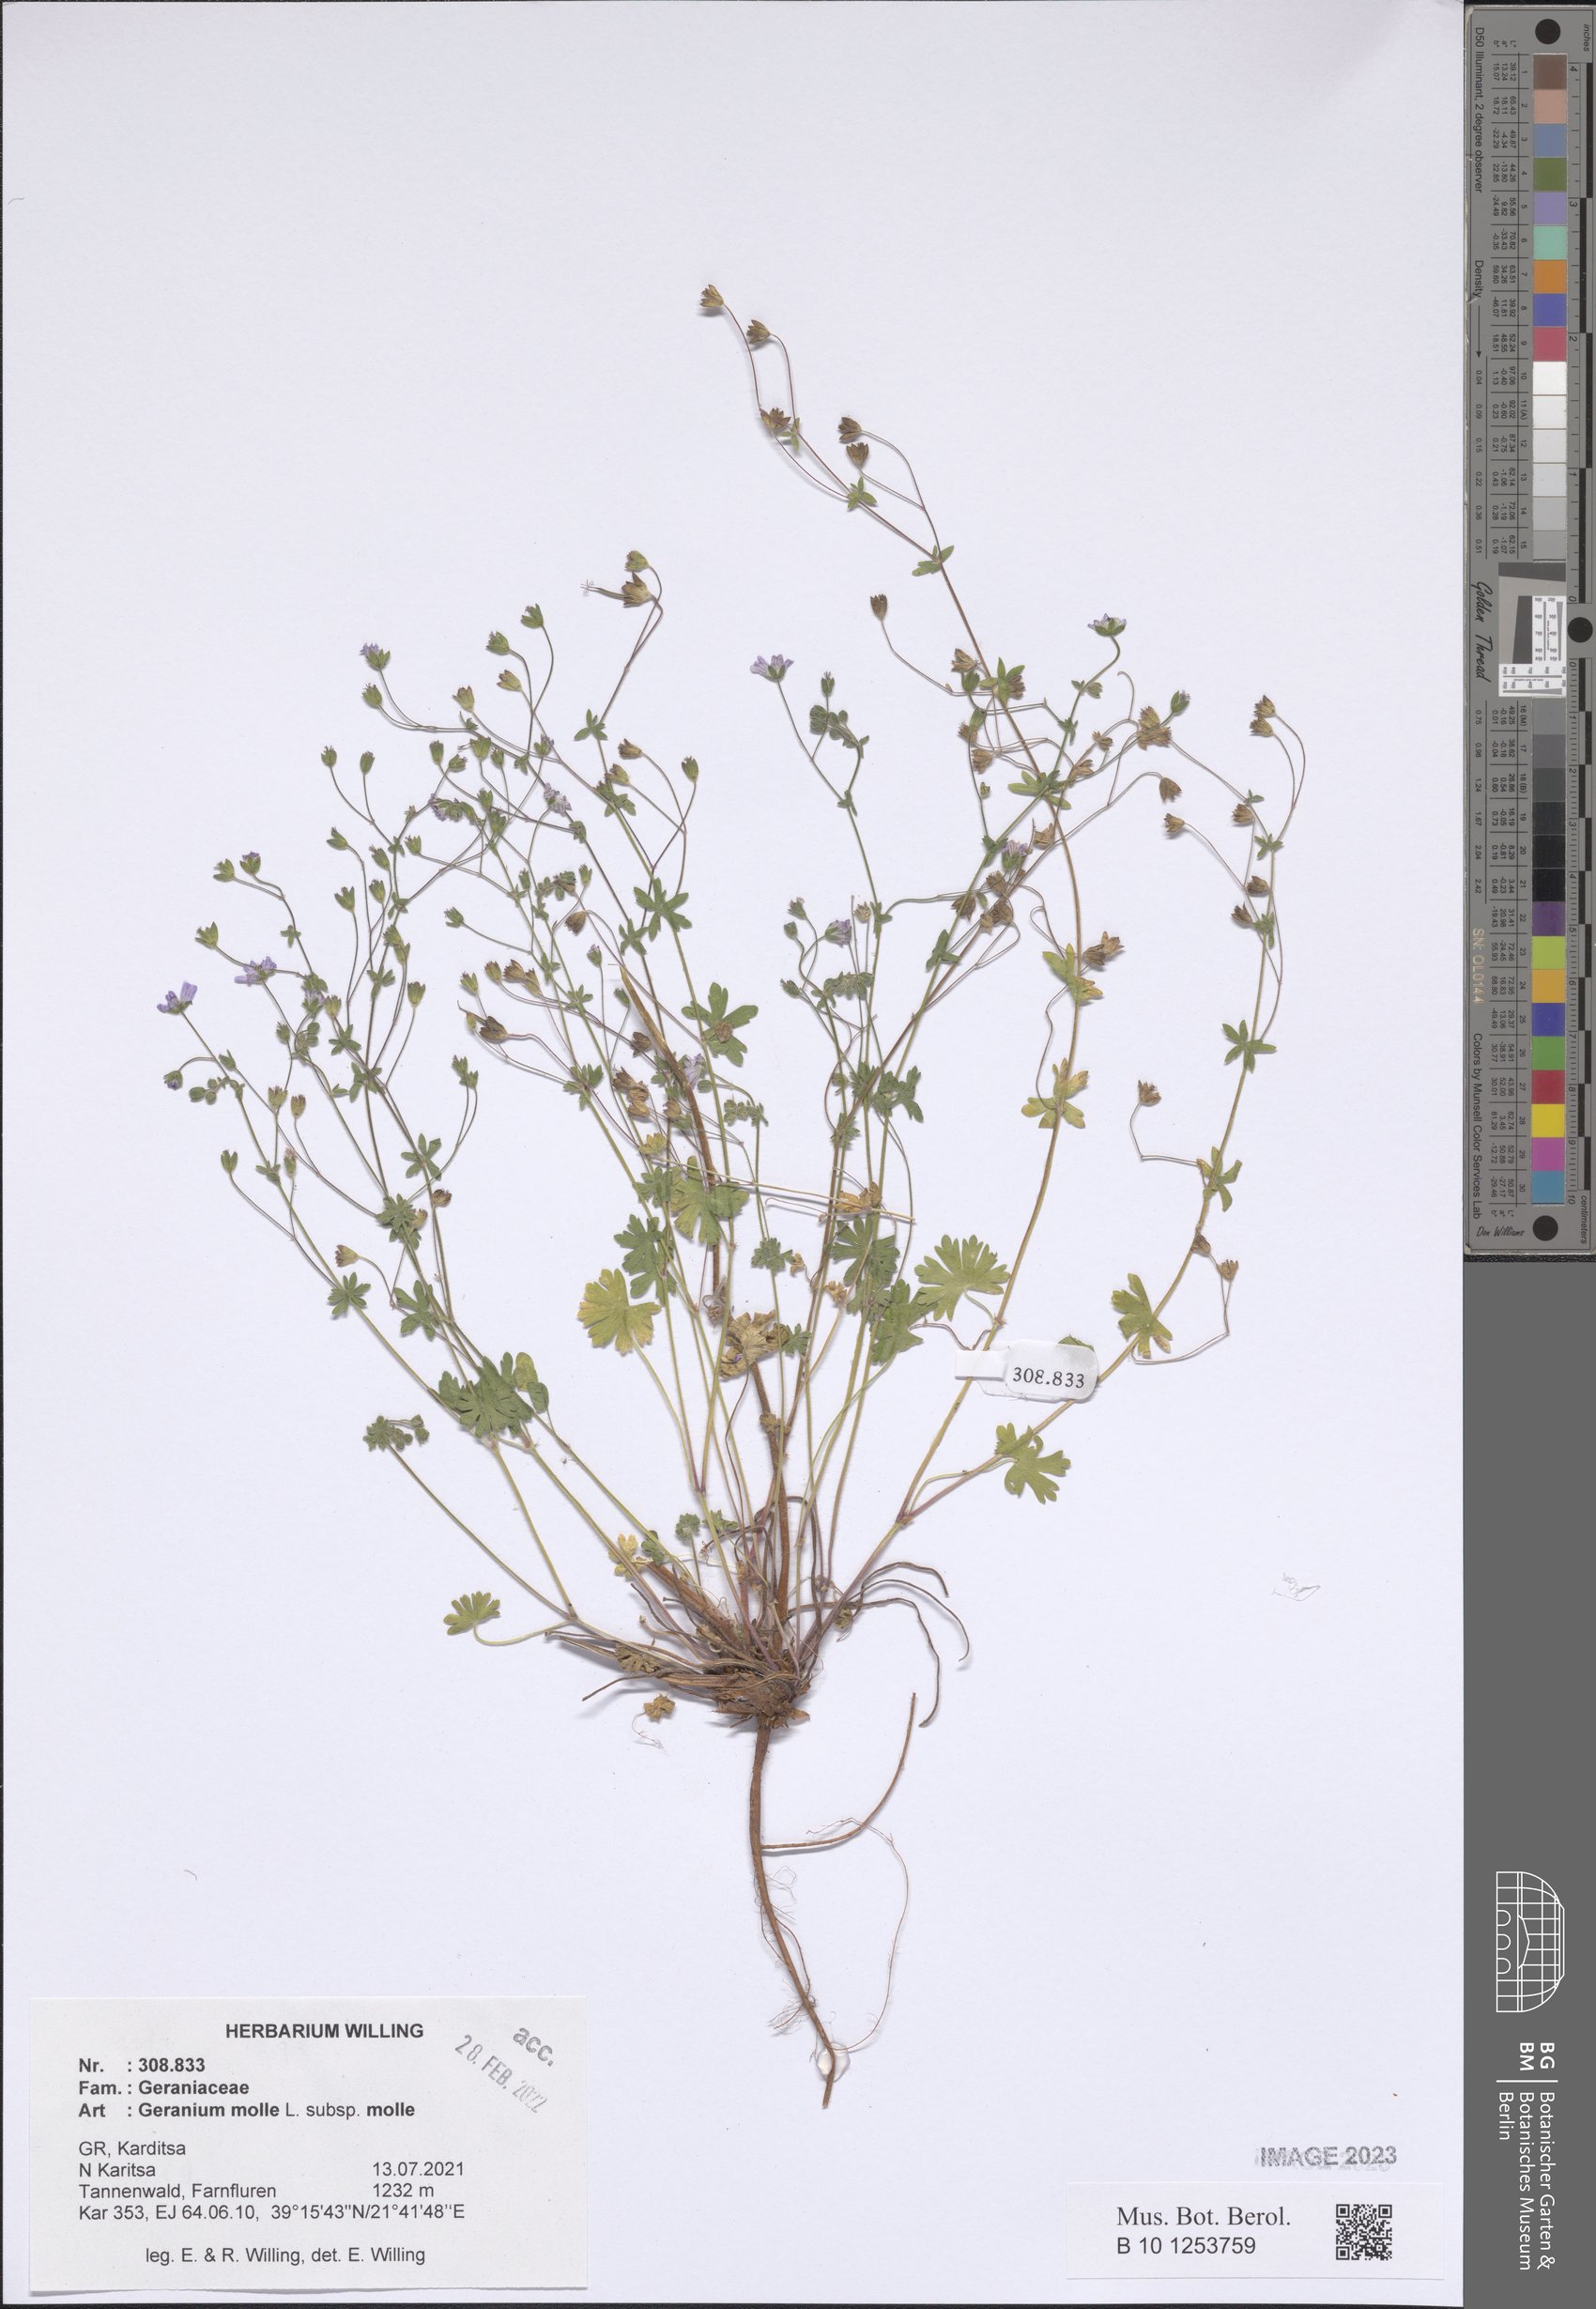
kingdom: Plantae
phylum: Tracheophyta
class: Magnoliopsida
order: Geraniales
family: Geraniaceae
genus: Geranium
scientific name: Geranium molle
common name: Dove's-foot crane's-bill
